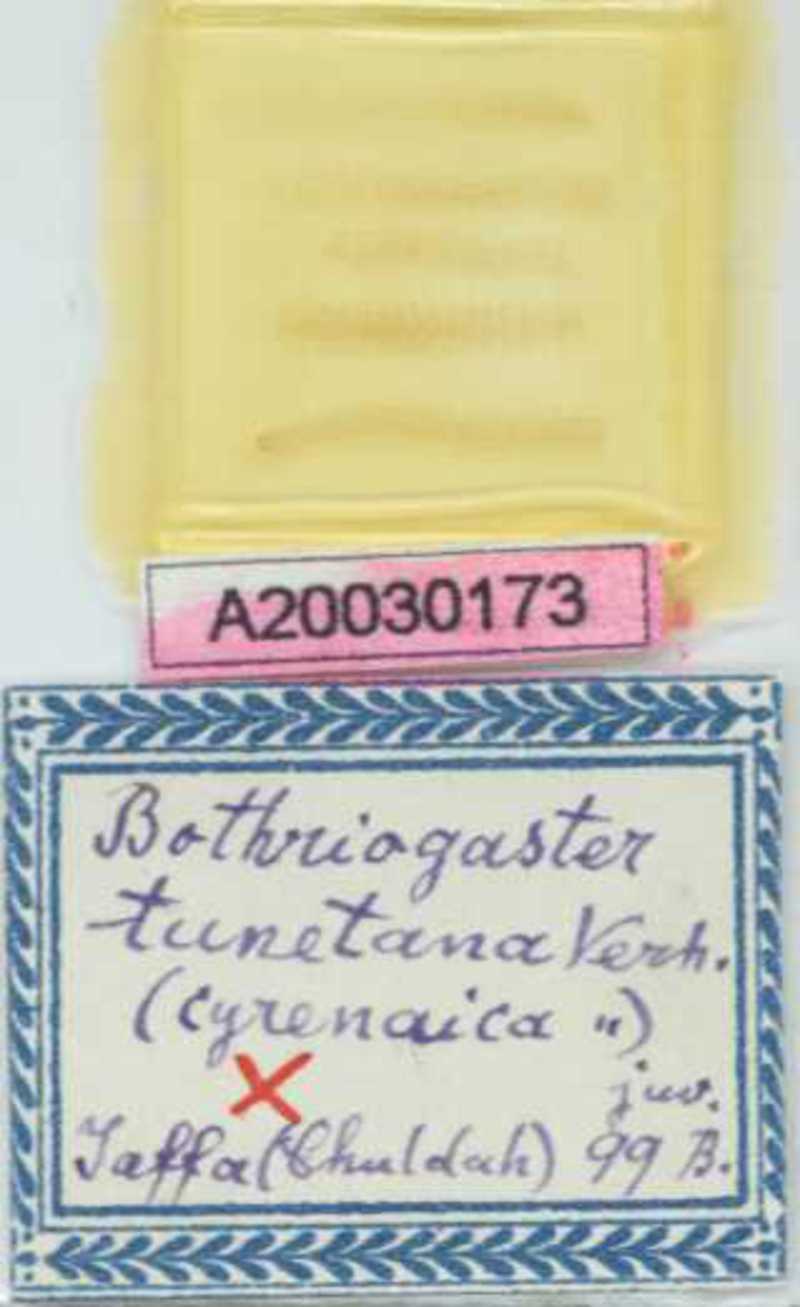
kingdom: Animalia
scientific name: Animalia
